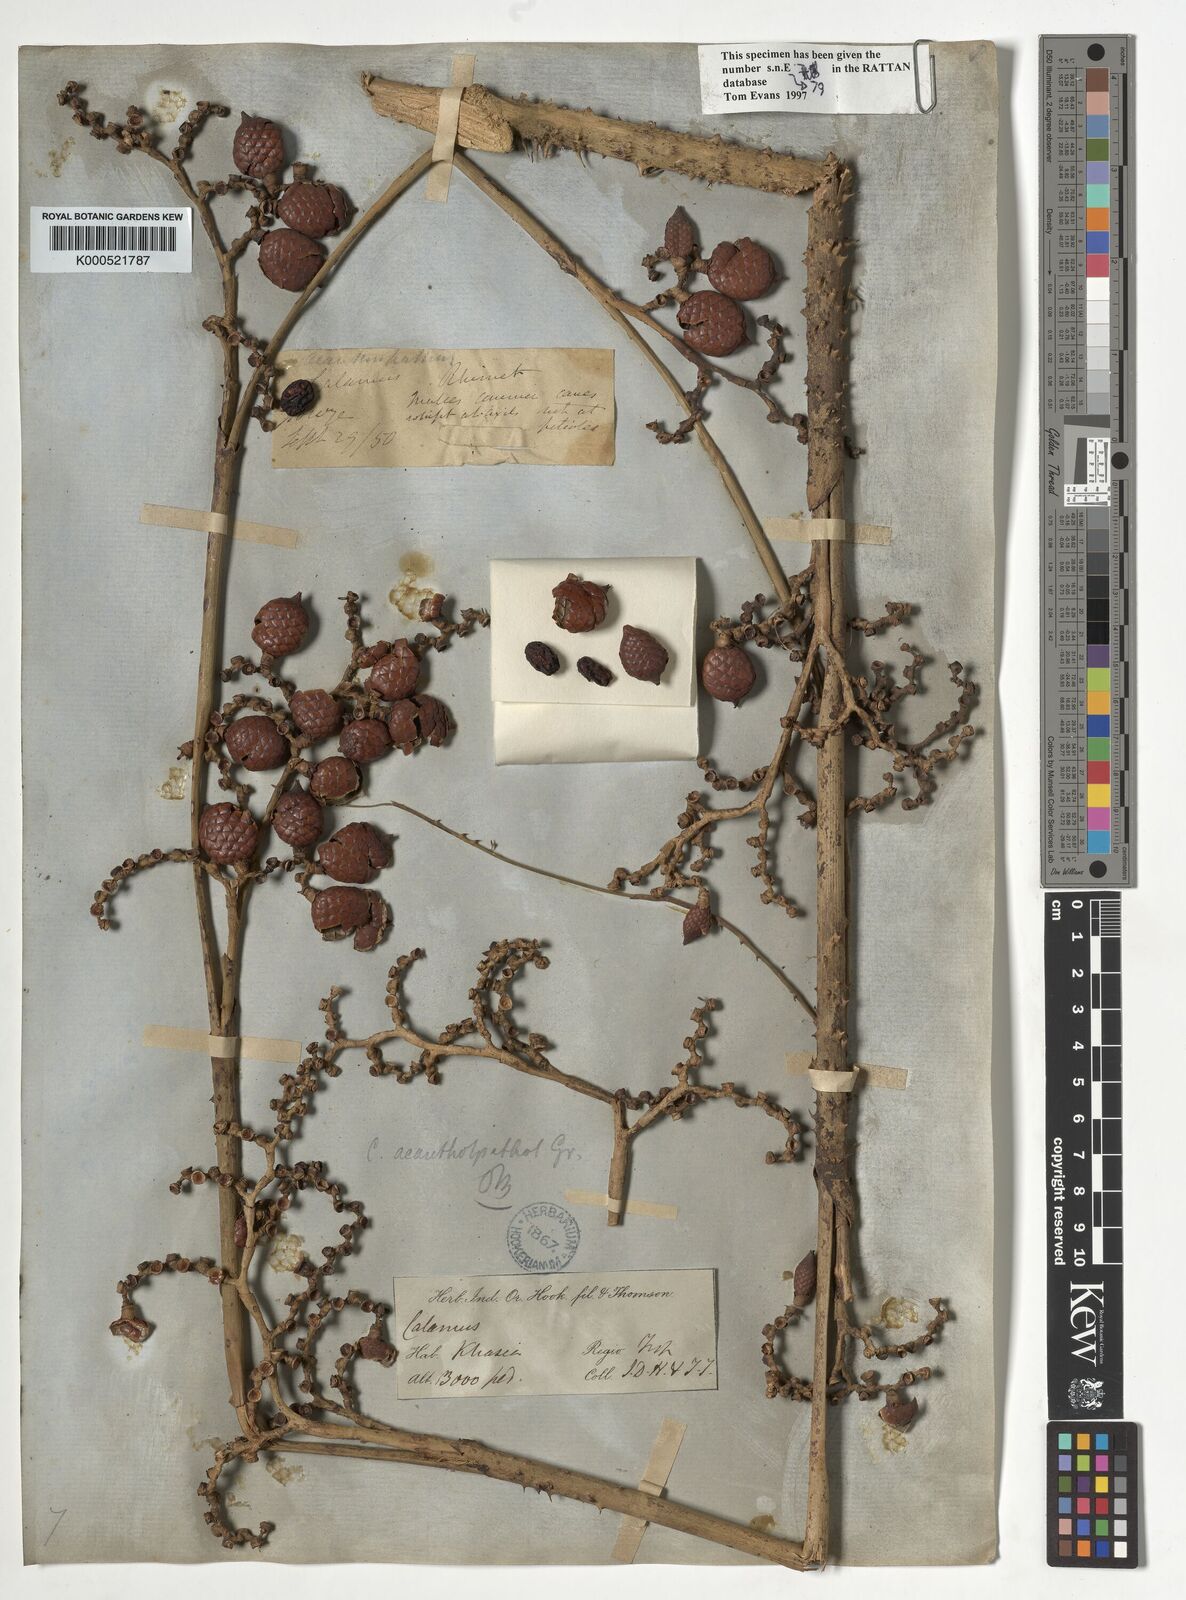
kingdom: Plantae
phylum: Tracheophyta
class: Liliopsida
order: Arecales
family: Arecaceae
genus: Calamus
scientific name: Calamus acanthospathus
